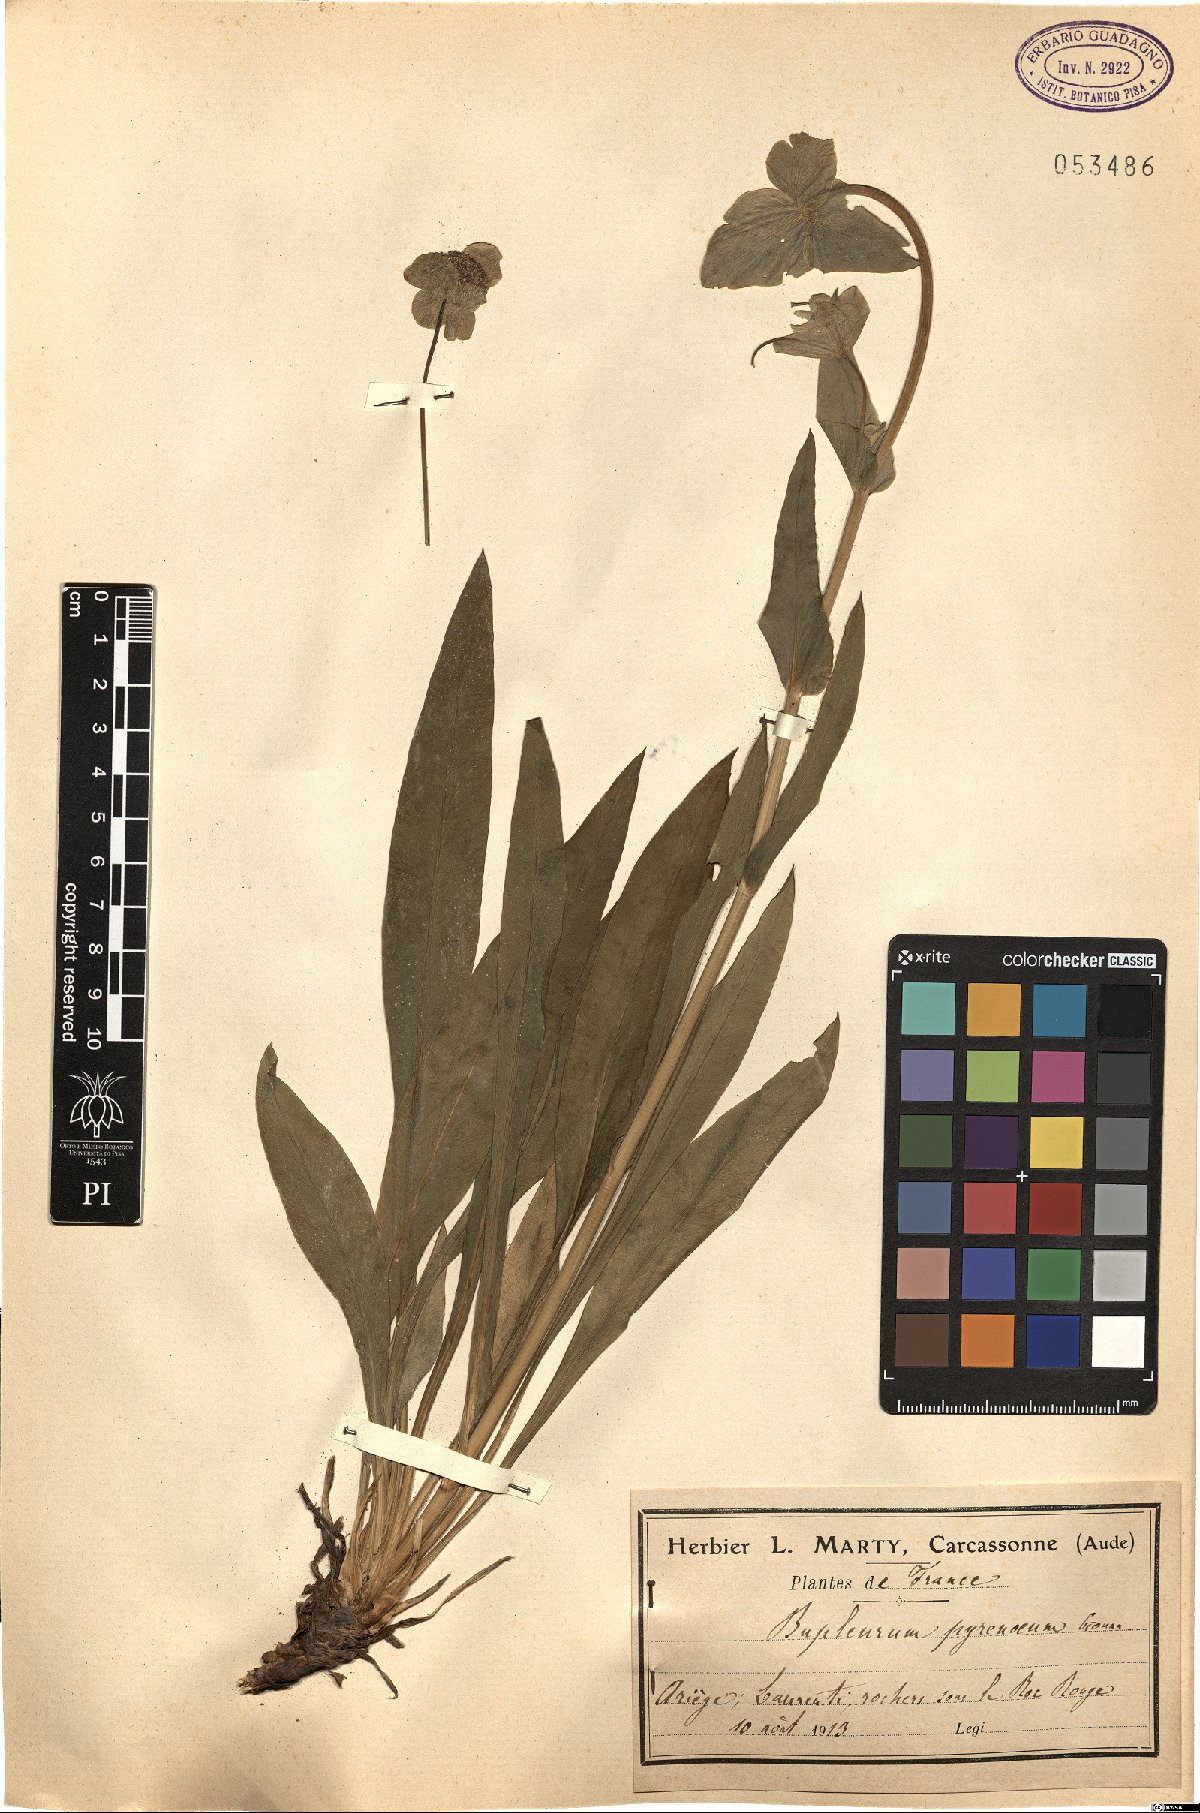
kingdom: Plantae
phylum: Tracheophyta
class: Magnoliopsida
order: Apiales
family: Apiaceae
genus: Bupleurum
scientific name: Bupleurum angulosum
